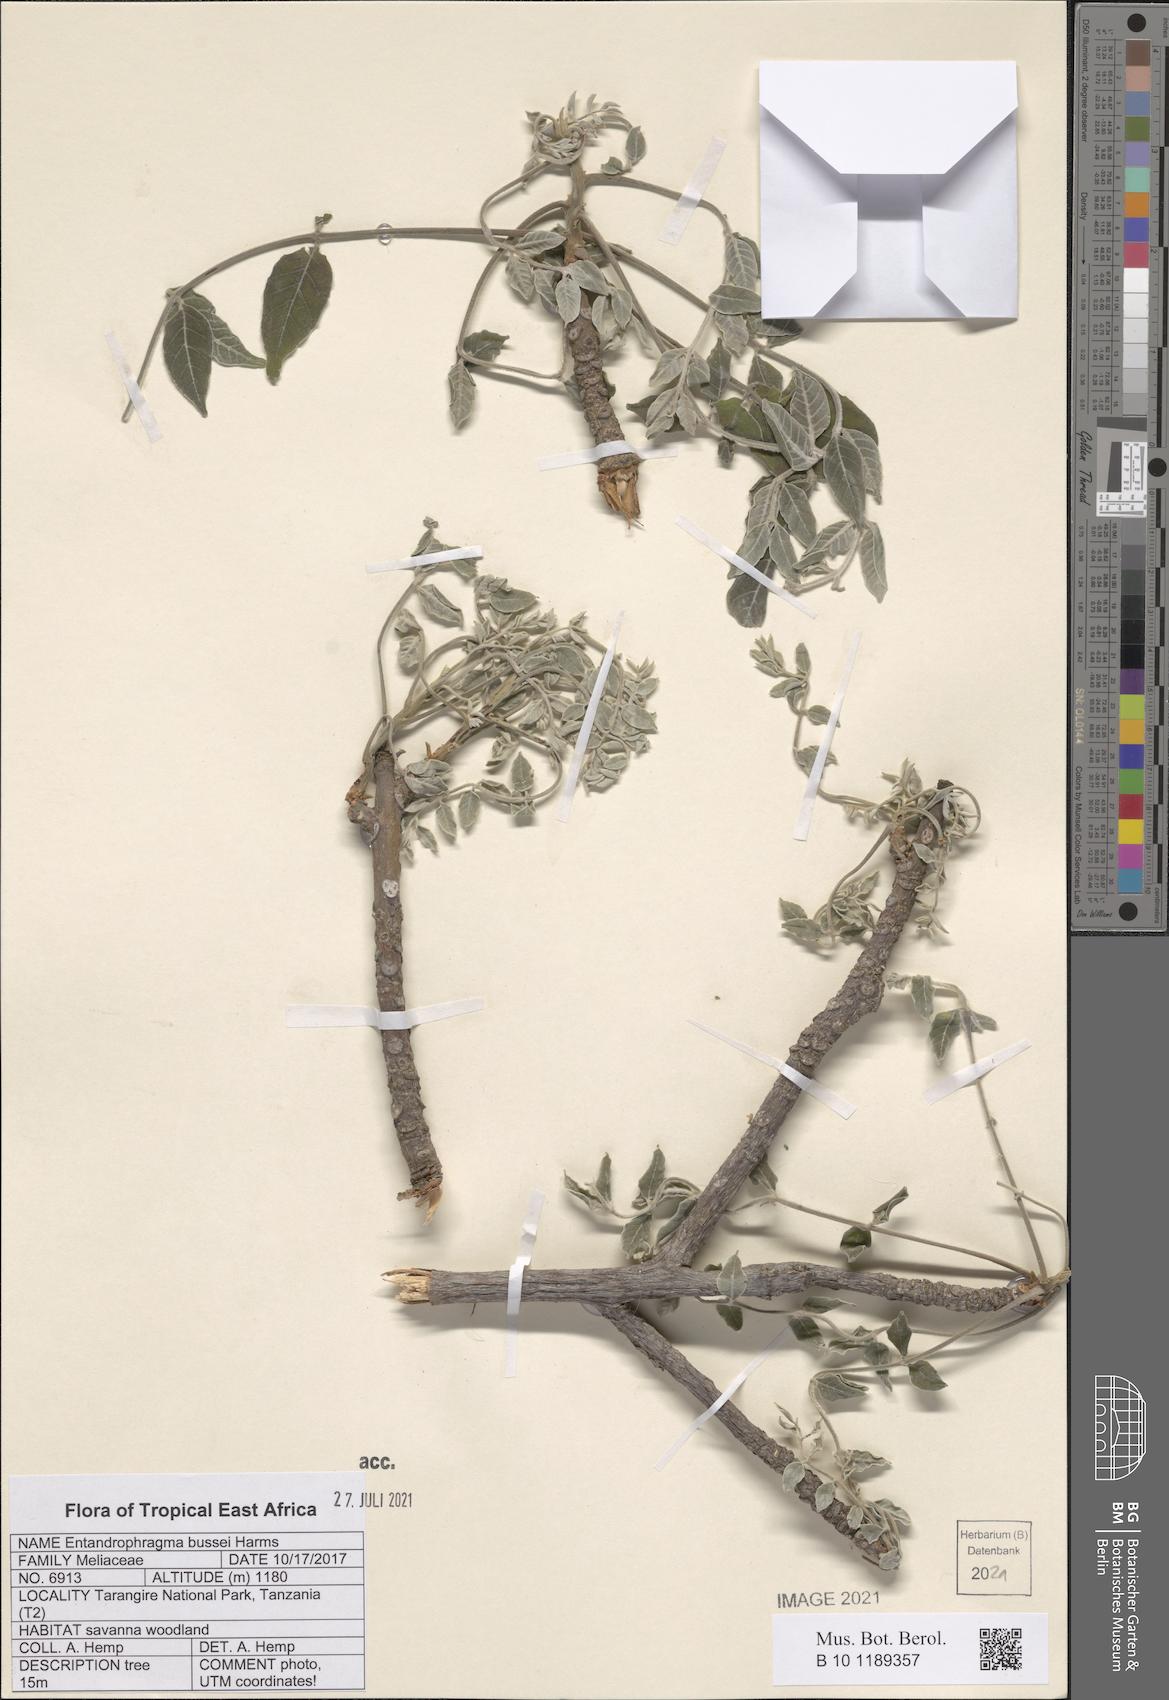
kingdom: Plantae
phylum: Tracheophyta
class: Magnoliopsida
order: Sapindales
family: Meliaceae
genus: Entandrophragma
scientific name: Entandrophragma bussei
